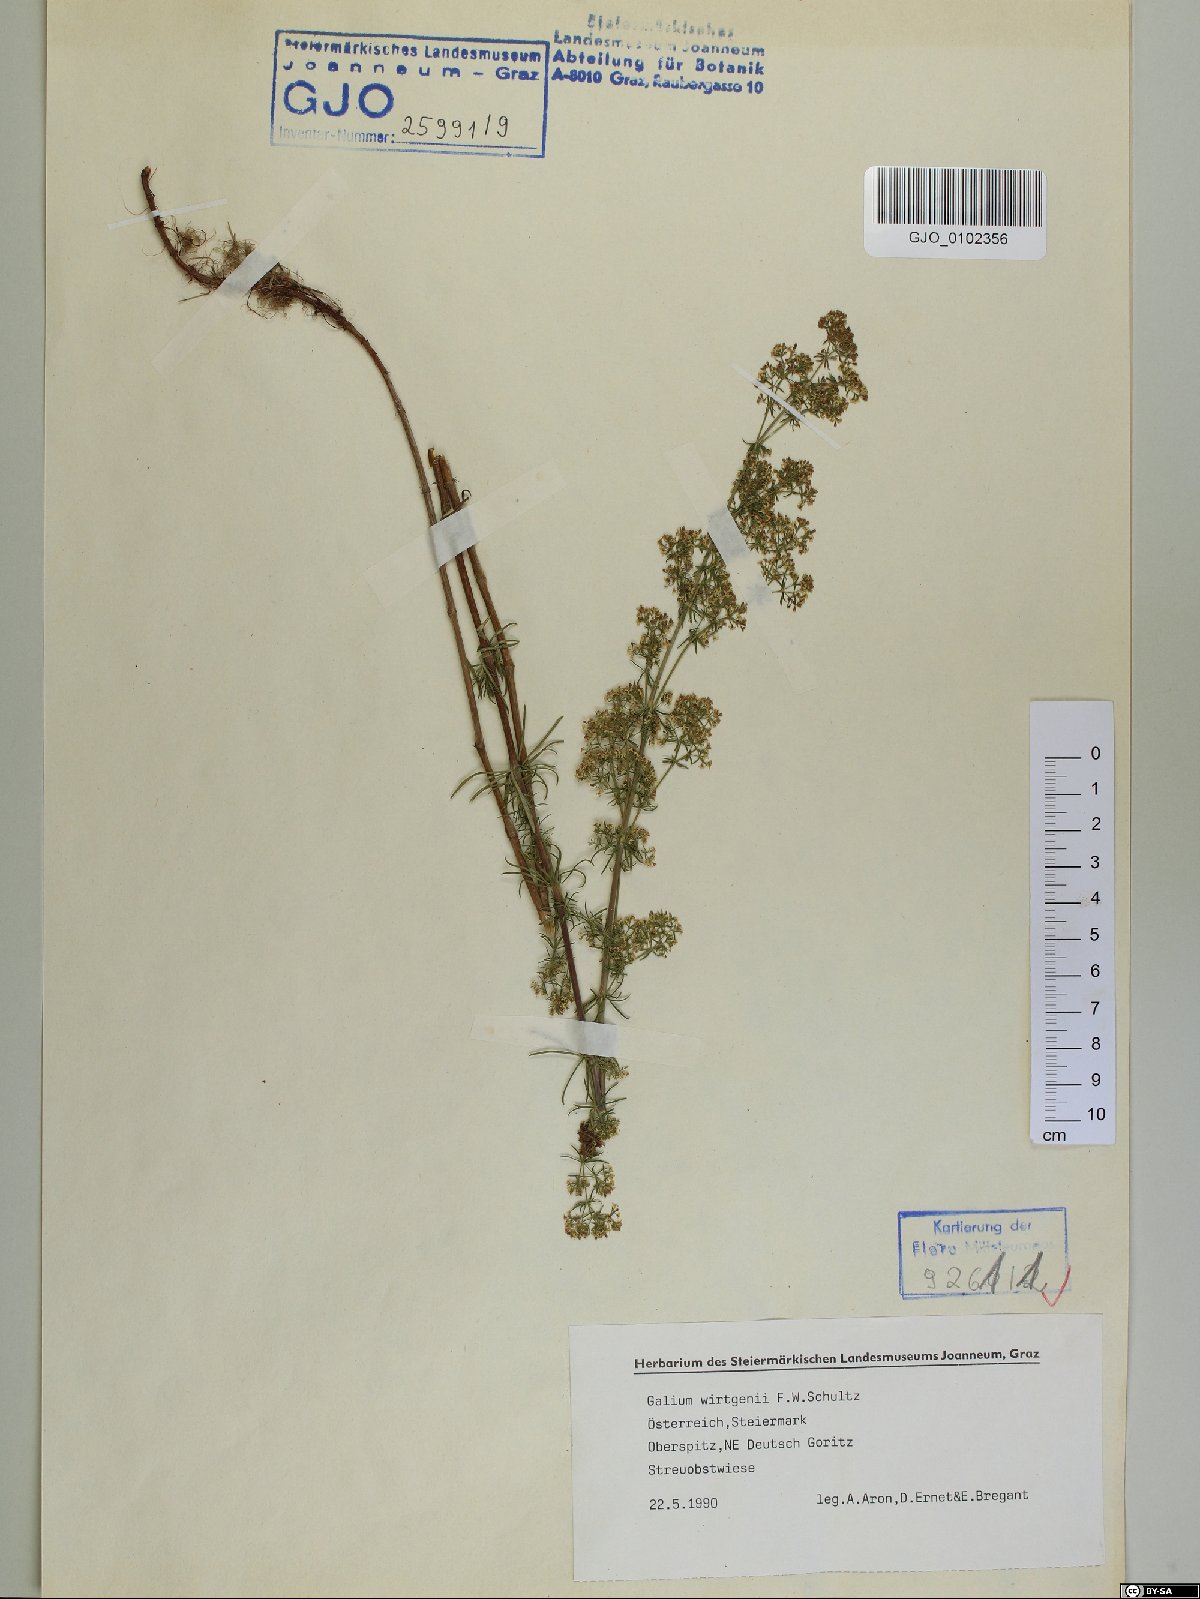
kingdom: Plantae
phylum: Tracheophyta
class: Magnoliopsida
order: Gentianales
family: Rubiaceae
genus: Galium
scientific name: Galium verum
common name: Lady's bedstraw
